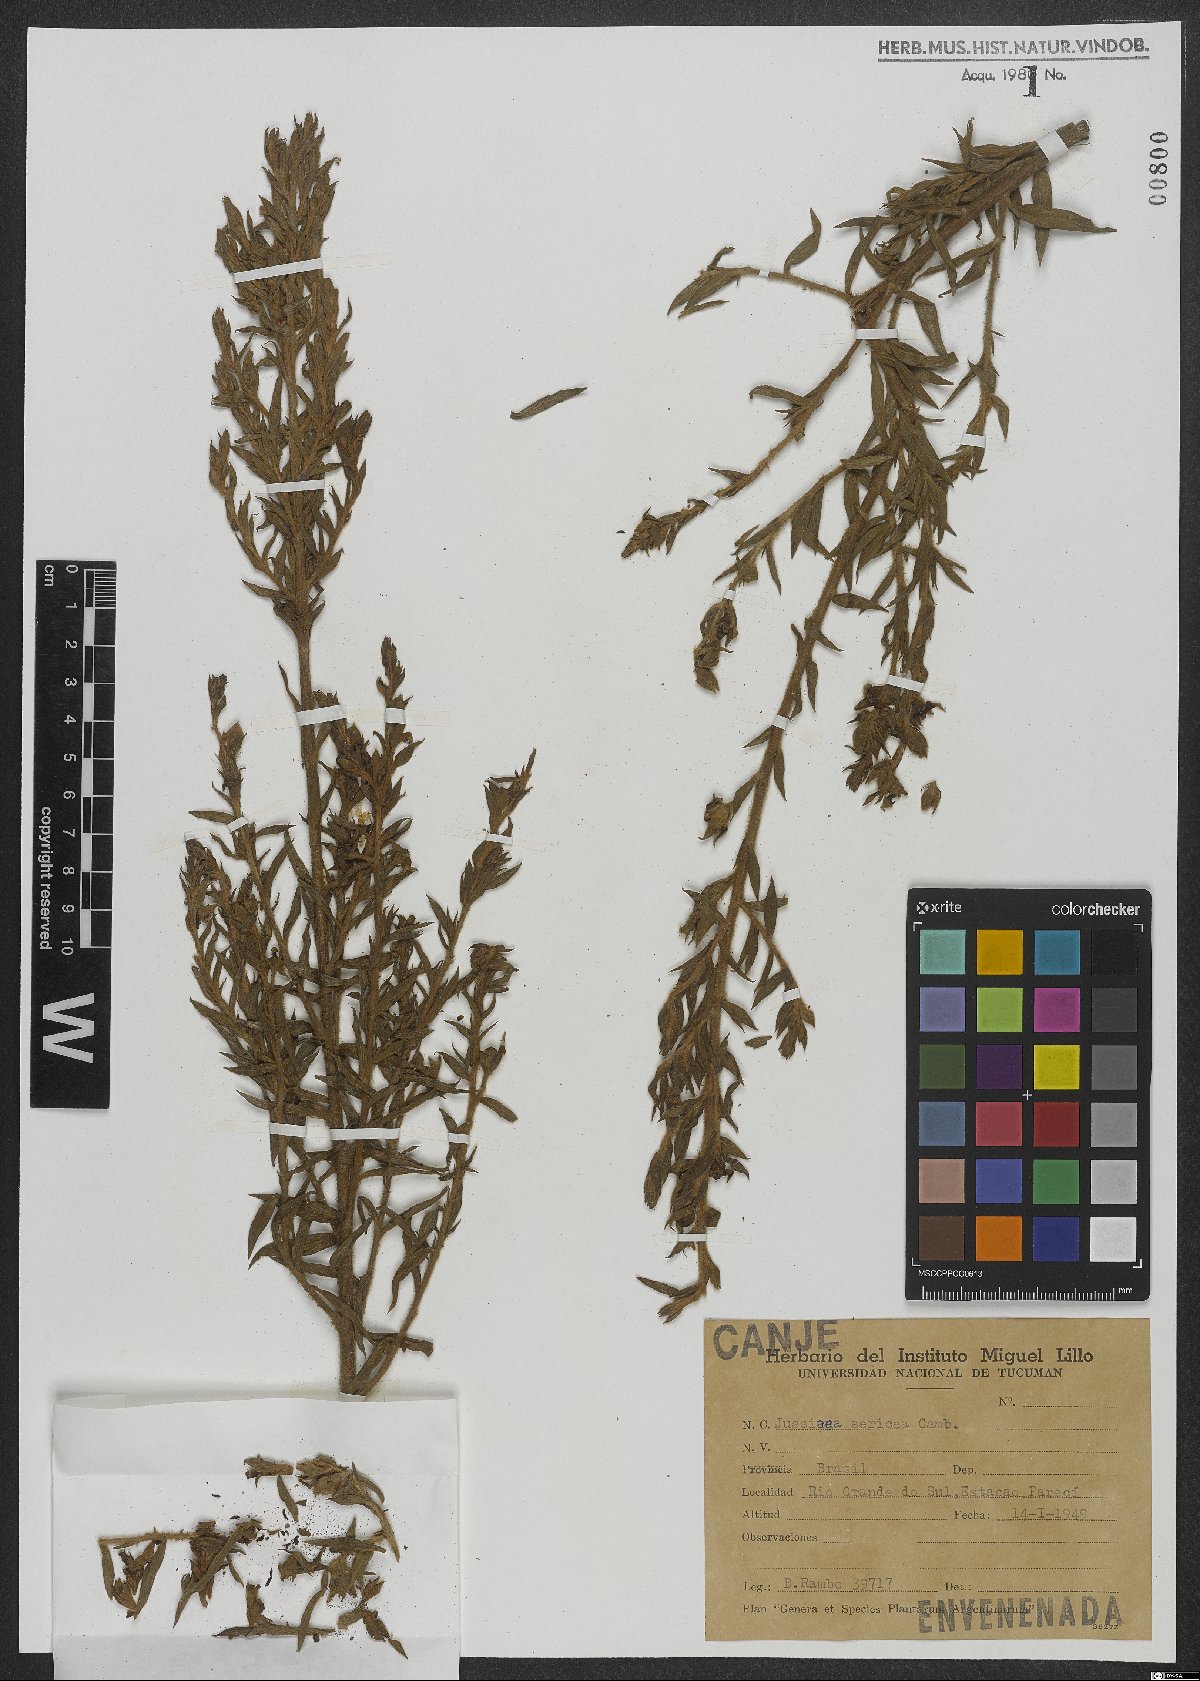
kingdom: Plantae
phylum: Tracheophyta
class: Magnoliopsida
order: Myrtales
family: Onagraceae
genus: Ludwigia
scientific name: Ludwigia sericea
